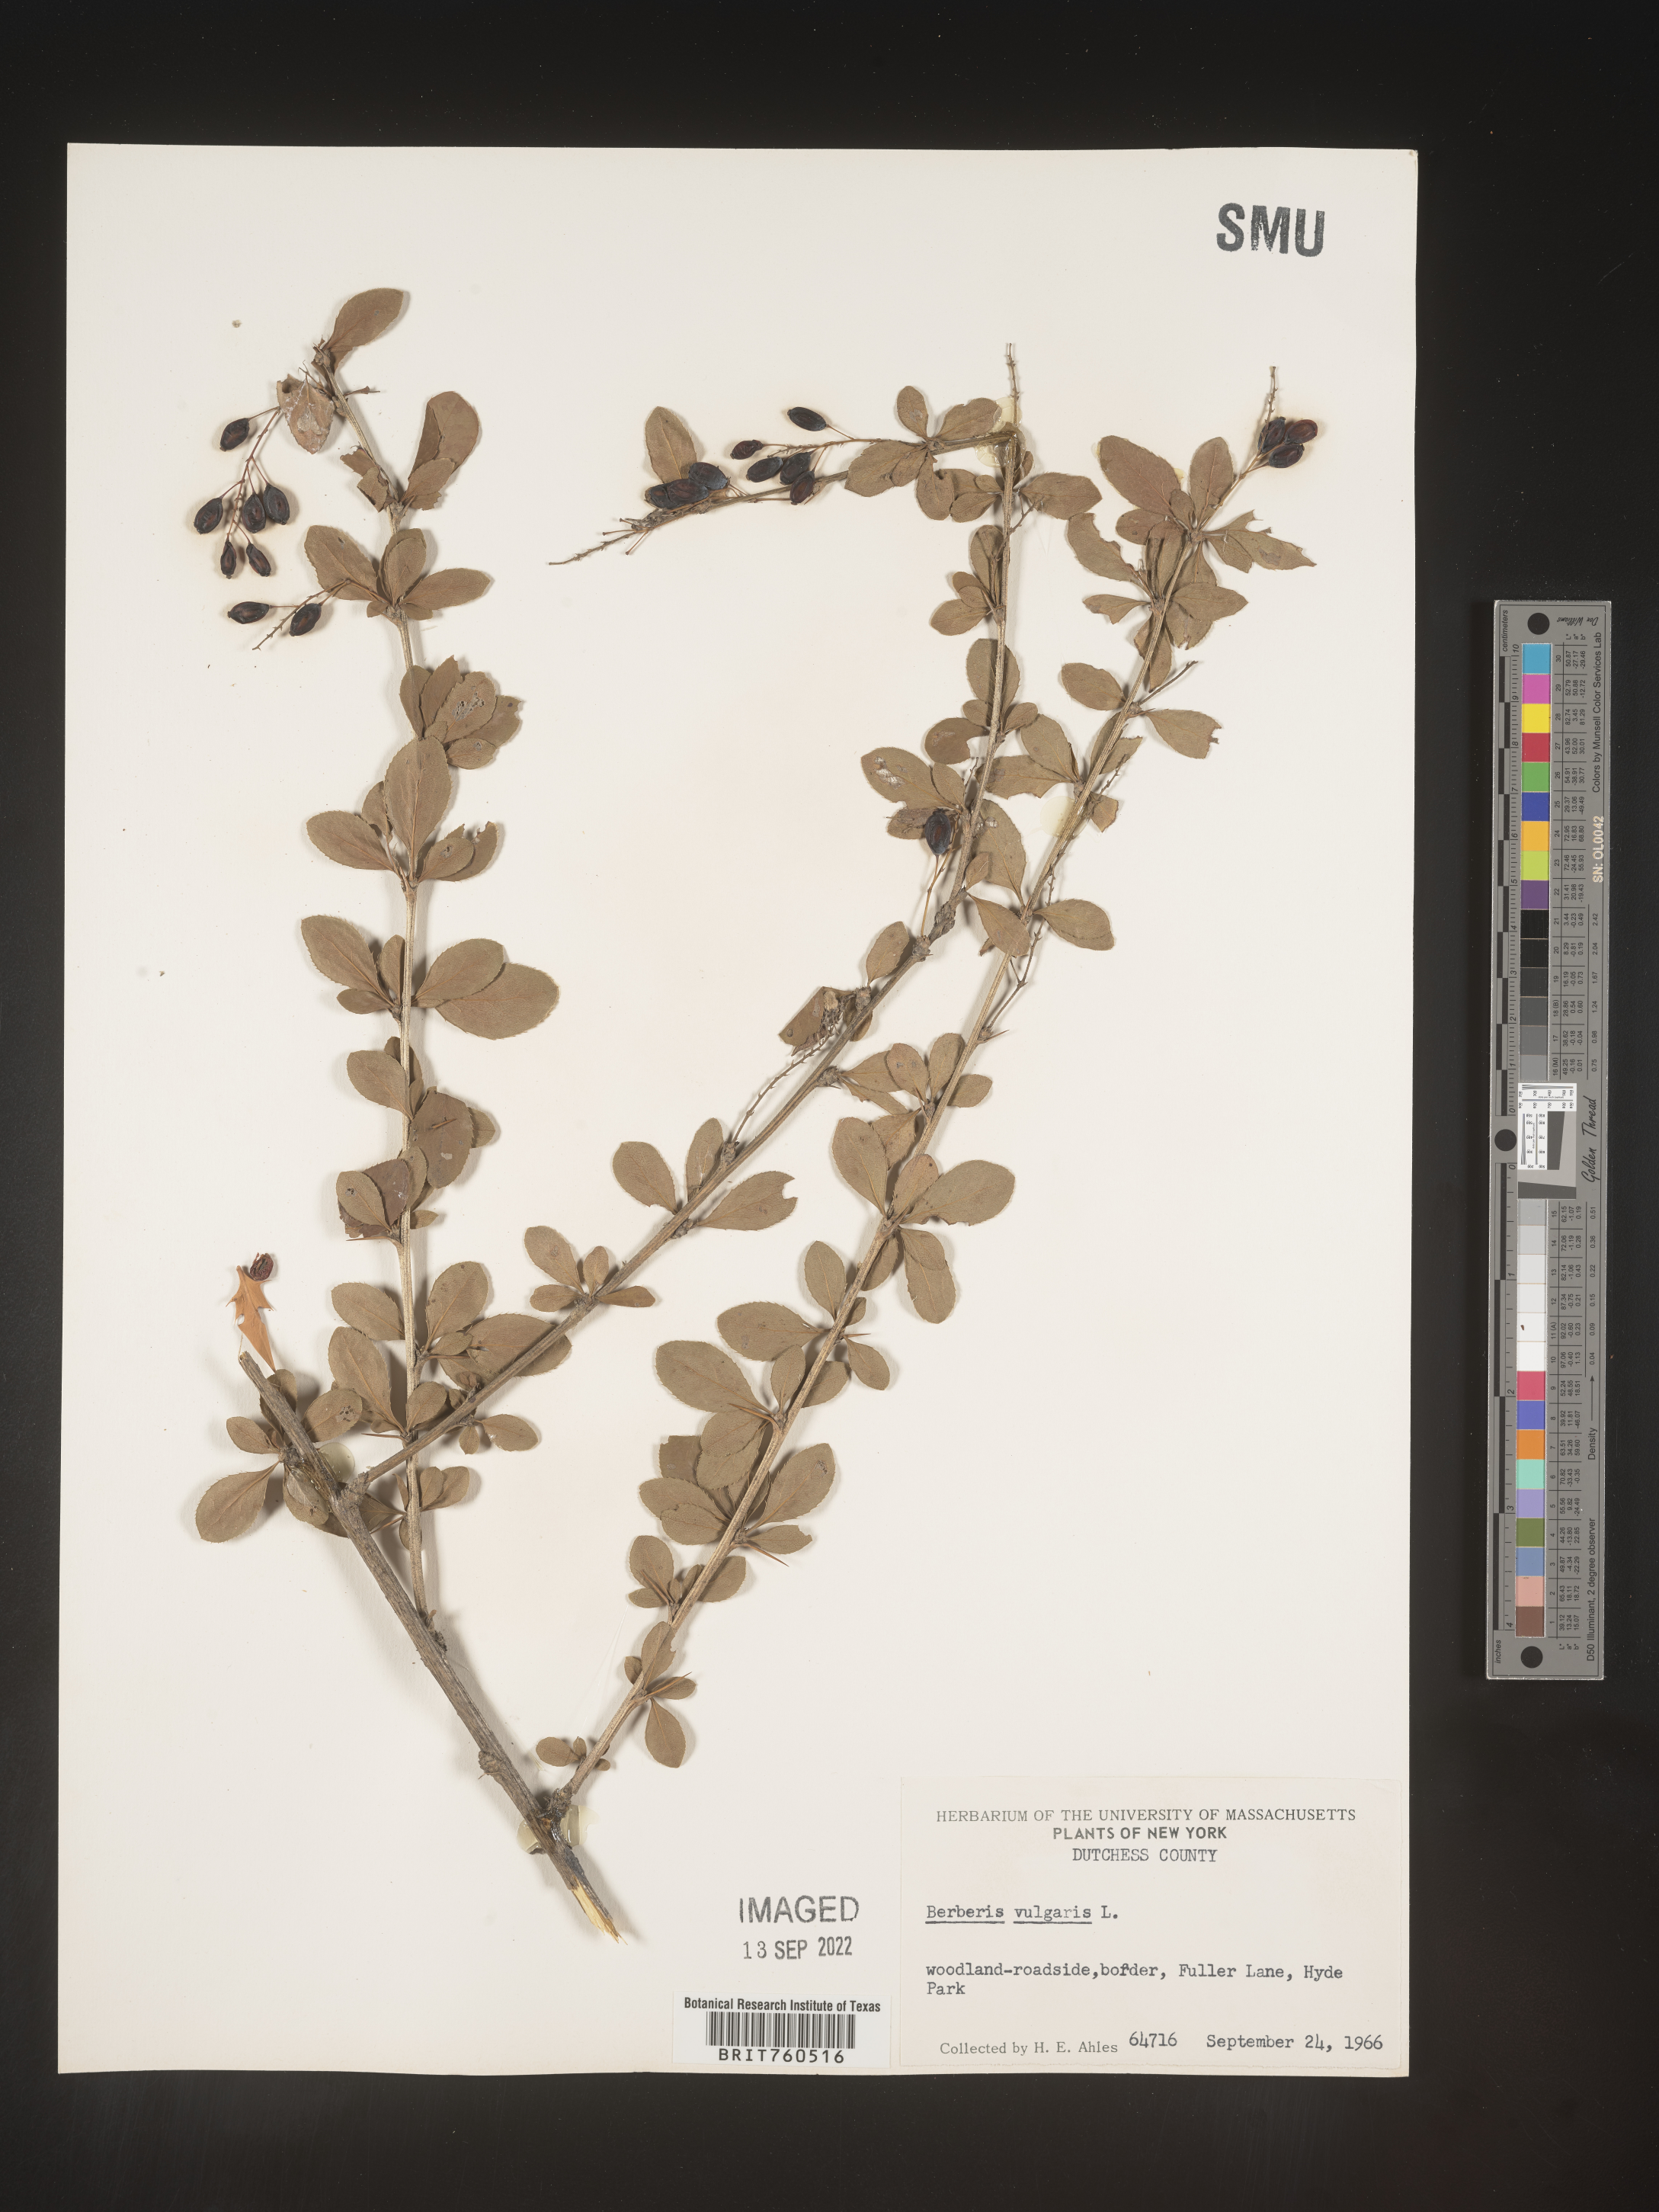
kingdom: Plantae
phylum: Tracheophyta
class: Magnoliopsida
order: Ranunculales
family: Berberidaceae
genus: Berberis
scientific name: Berberis
